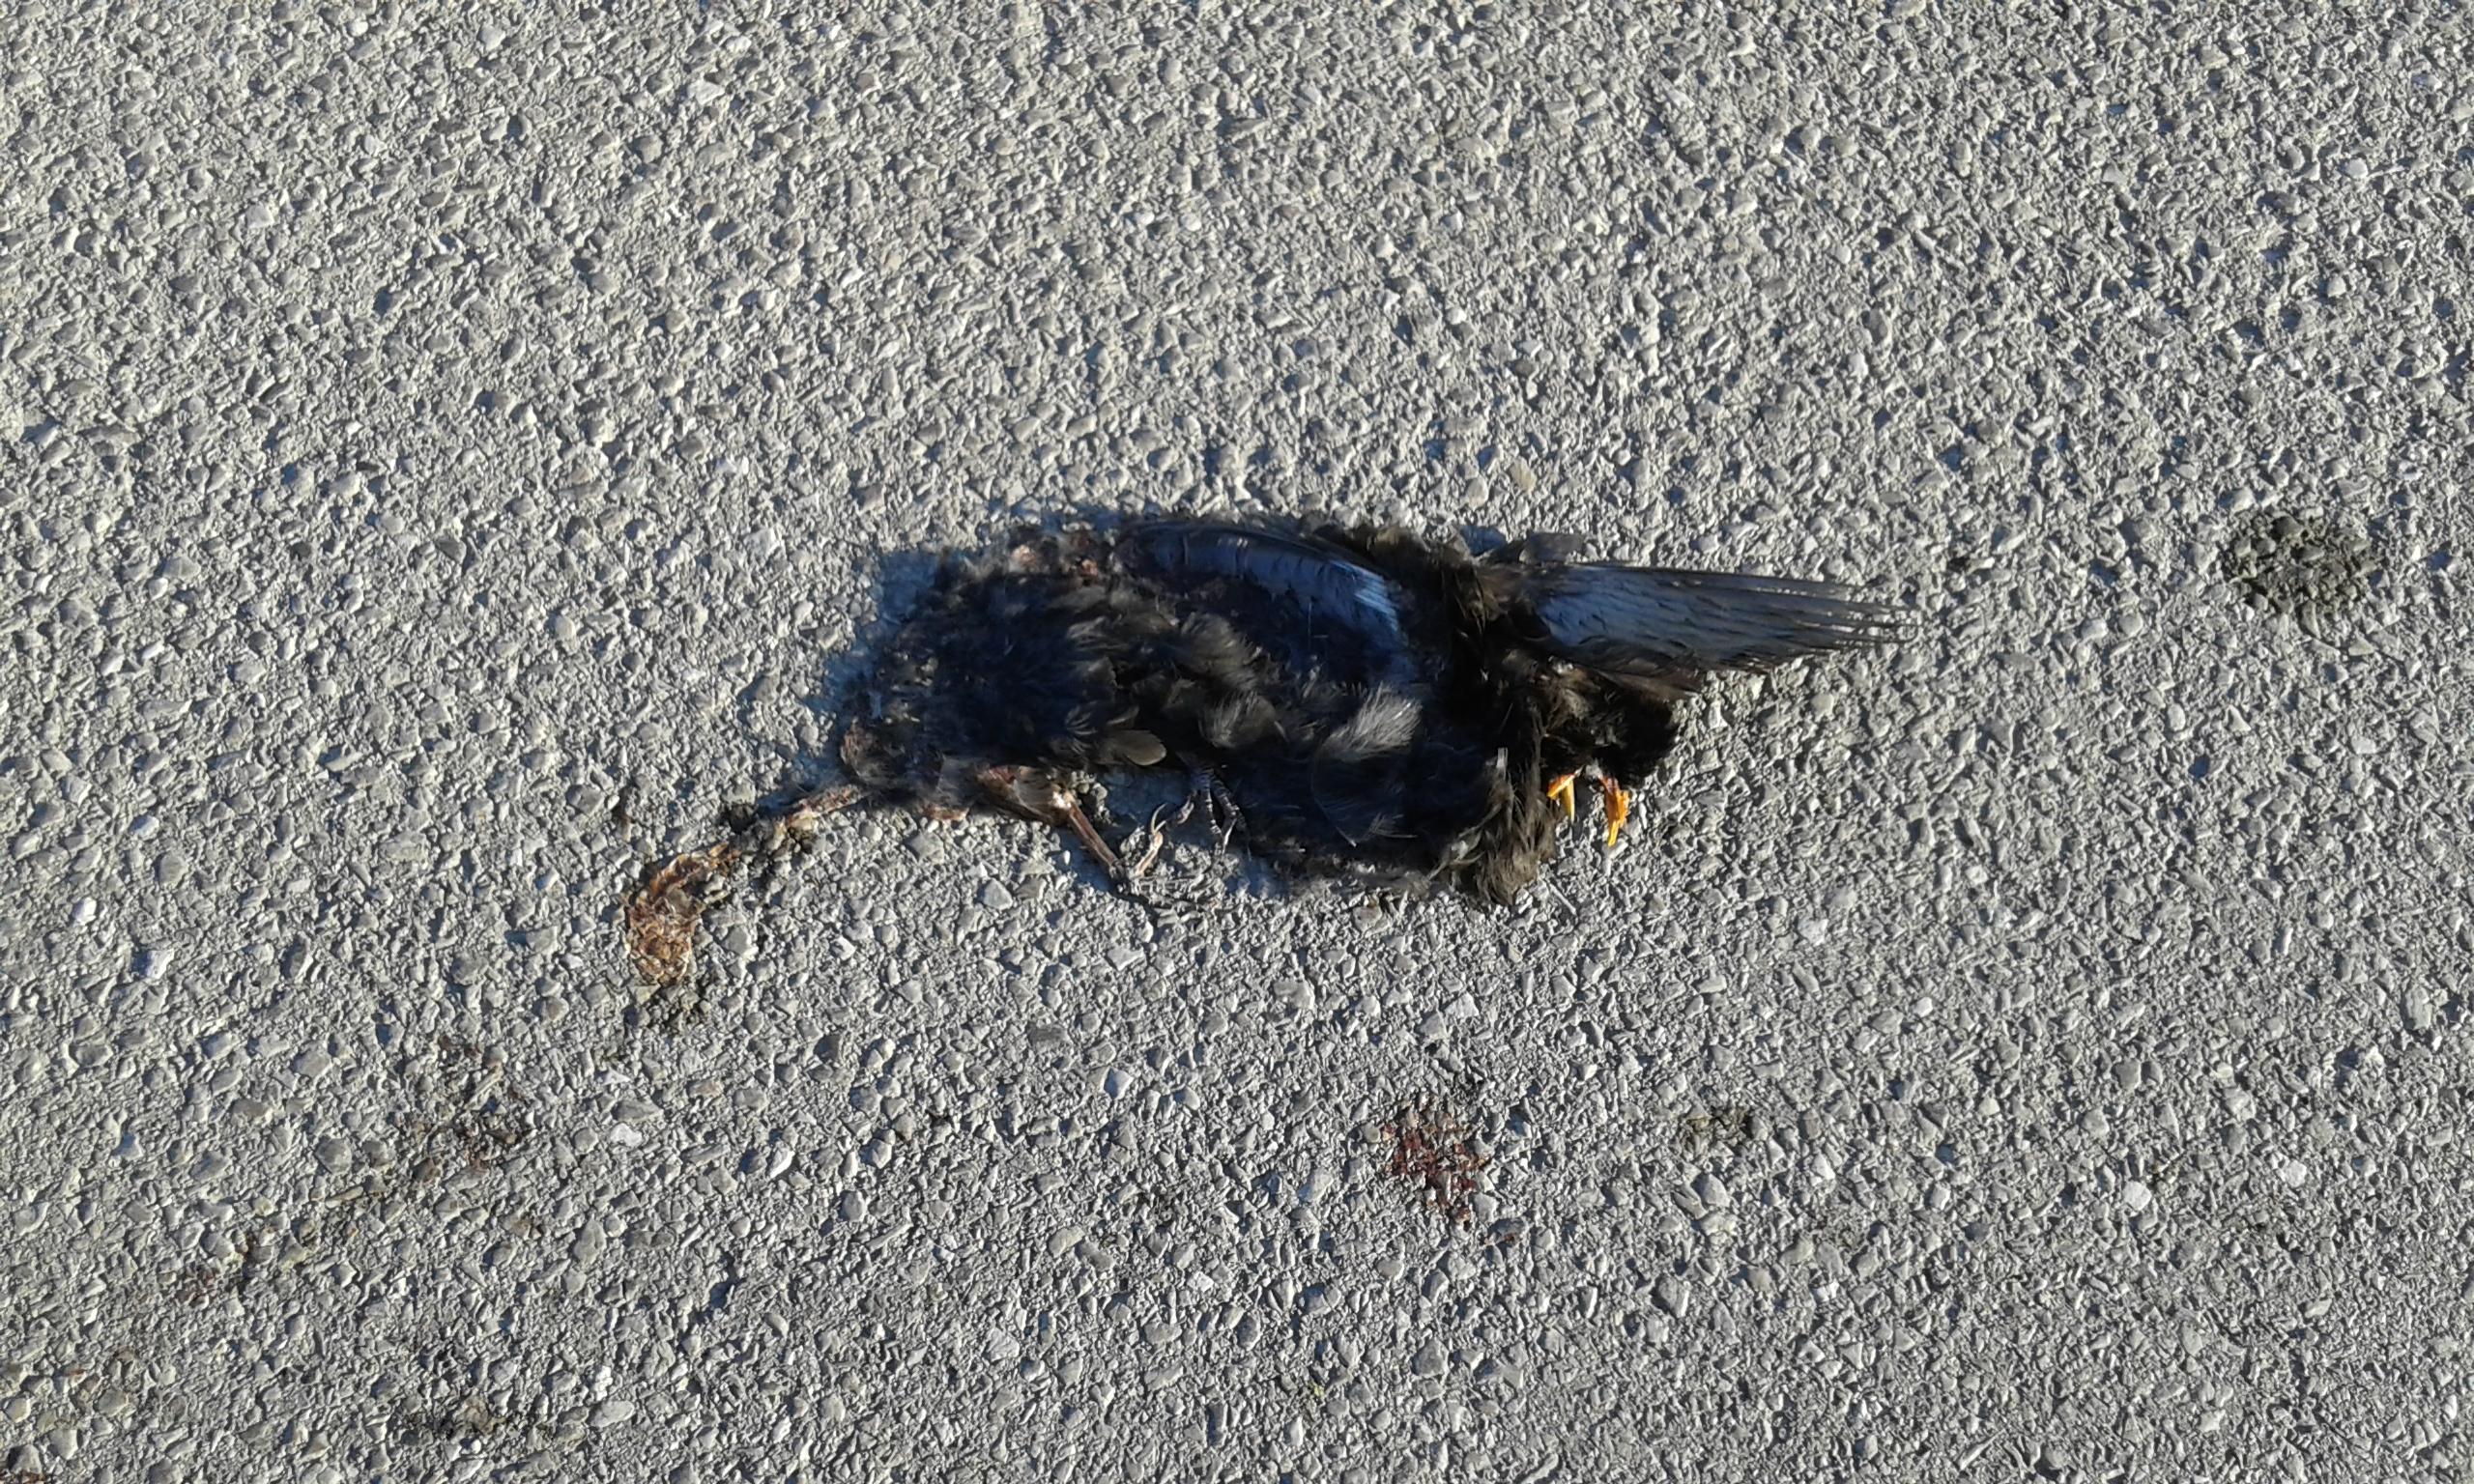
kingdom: Animalia
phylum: Chordata
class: Aves
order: Passeriformes
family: Turdidae
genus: Turdus
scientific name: Turdus merula
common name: Common blackbird
